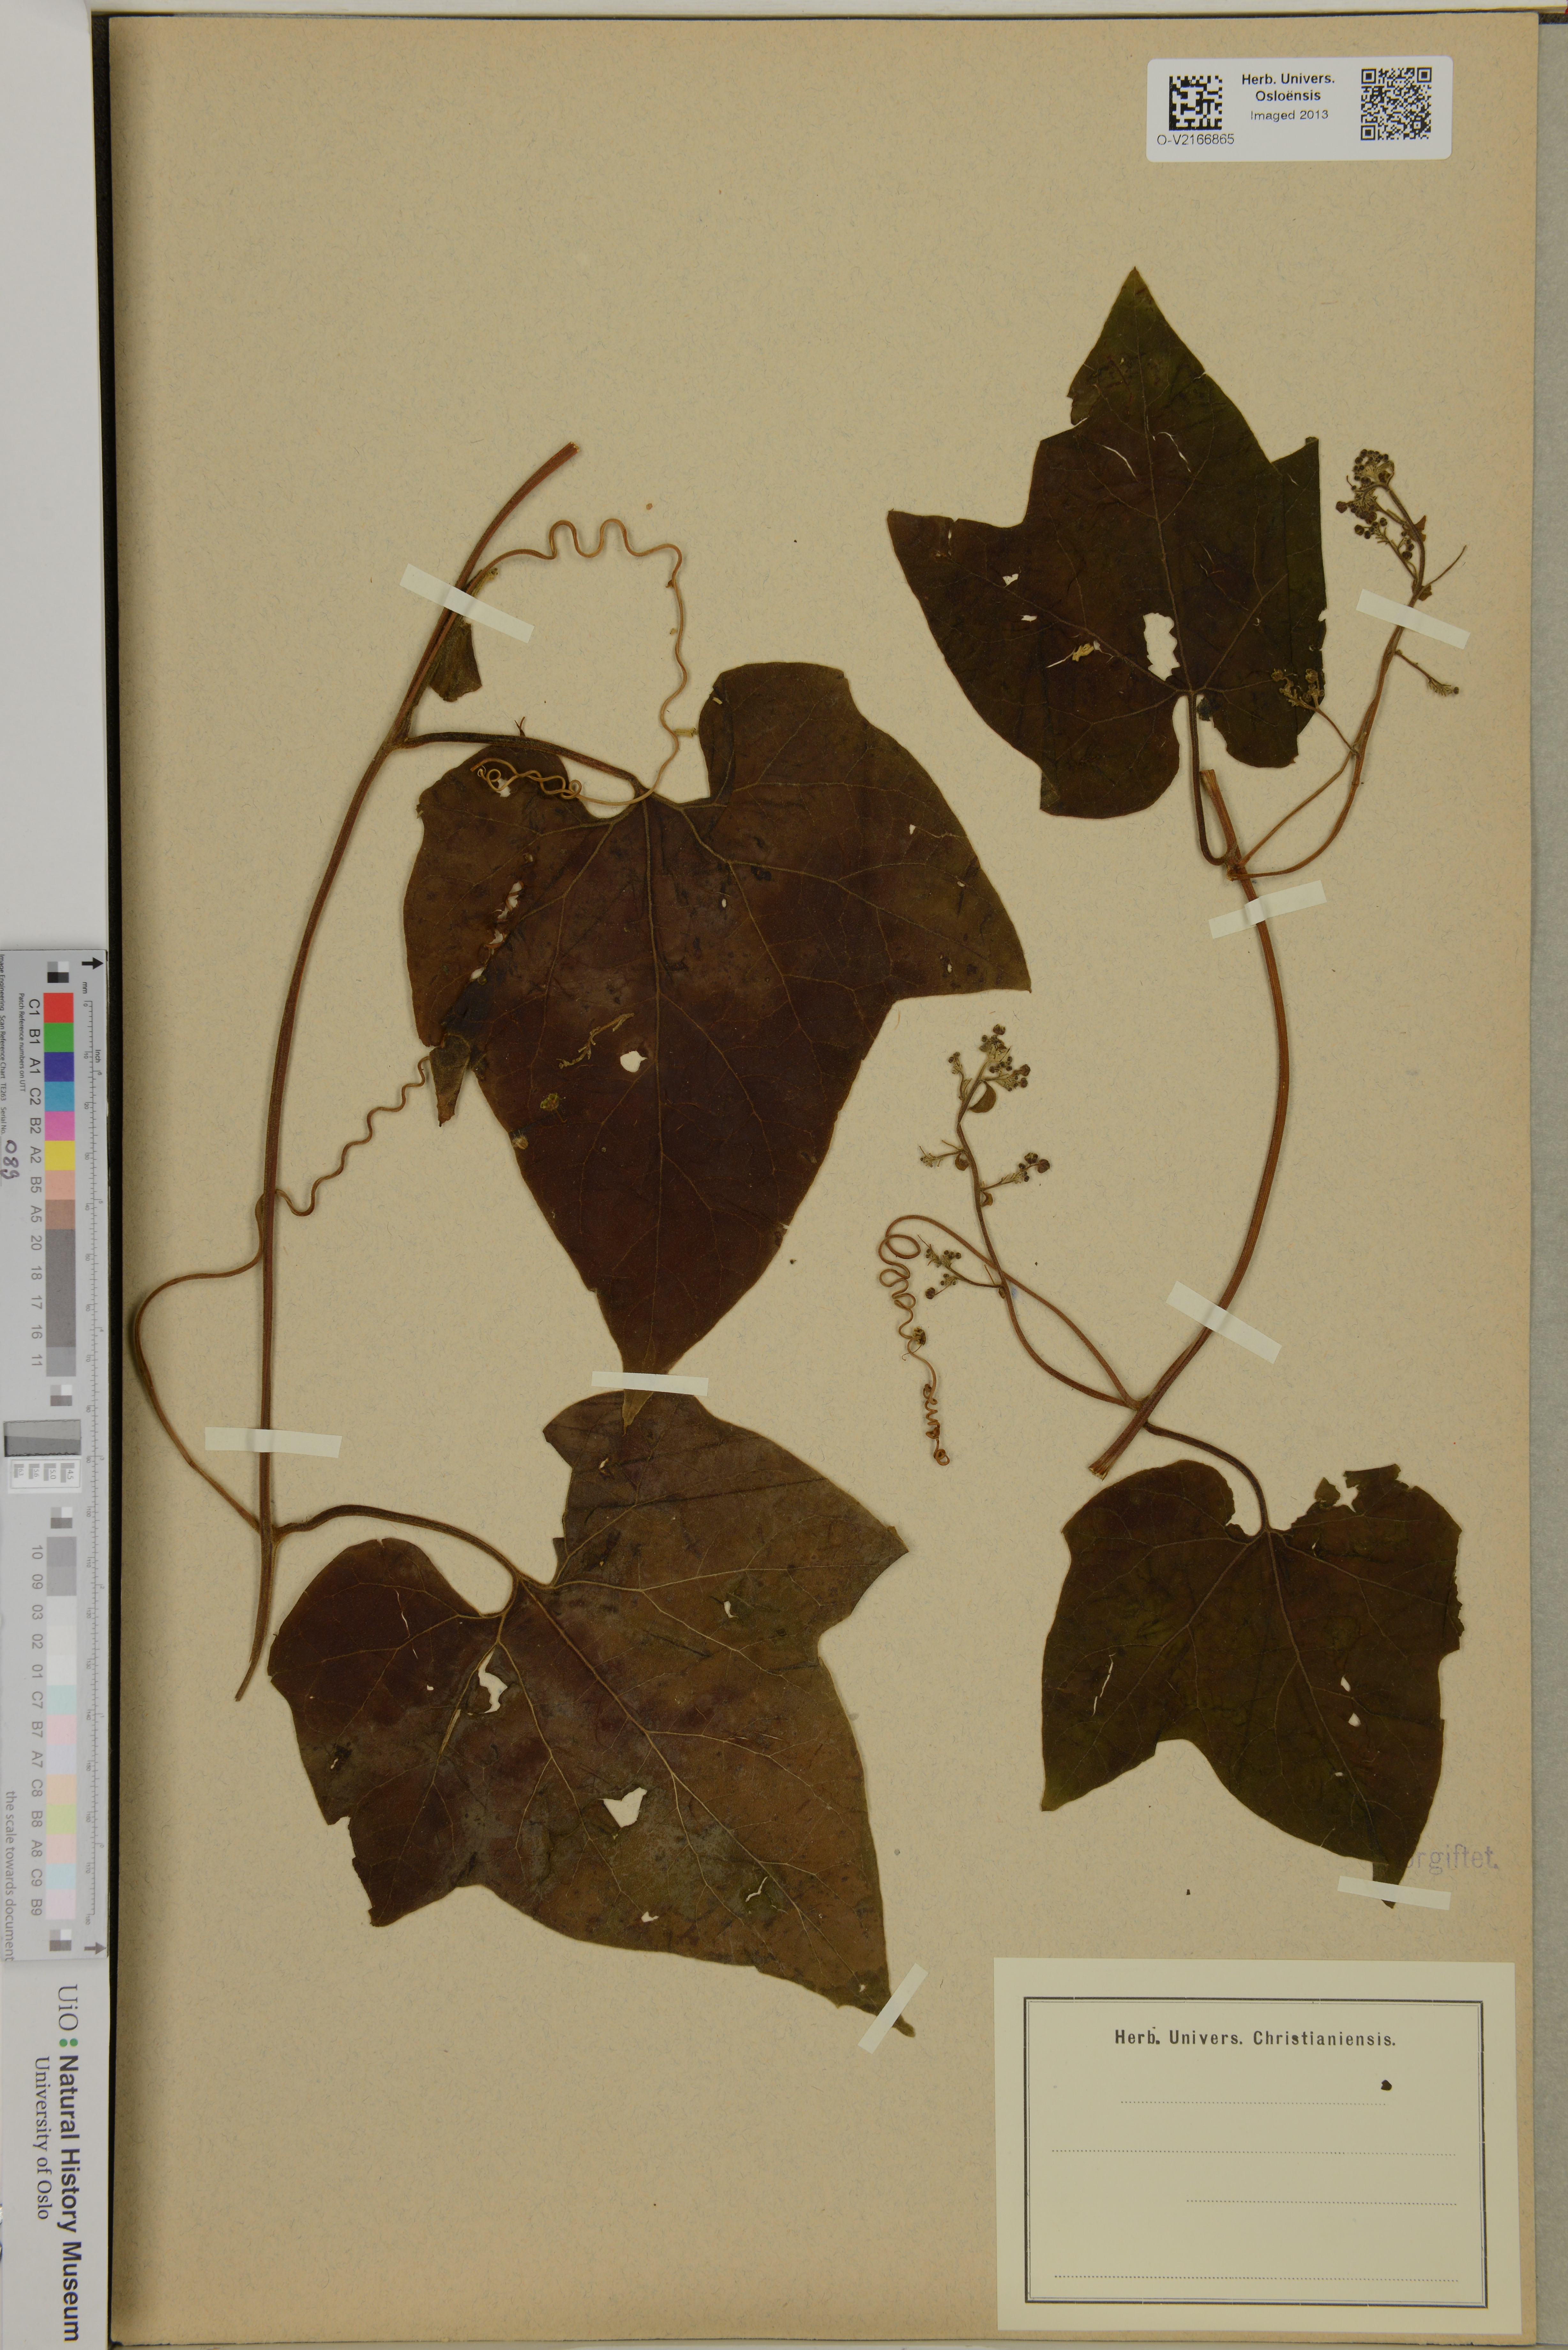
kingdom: Plantae
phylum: Tracheophyta
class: Magnoliopsida
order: Cucurbitales
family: Cucurbitaceae
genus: Fevillea
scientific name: Fevillea
